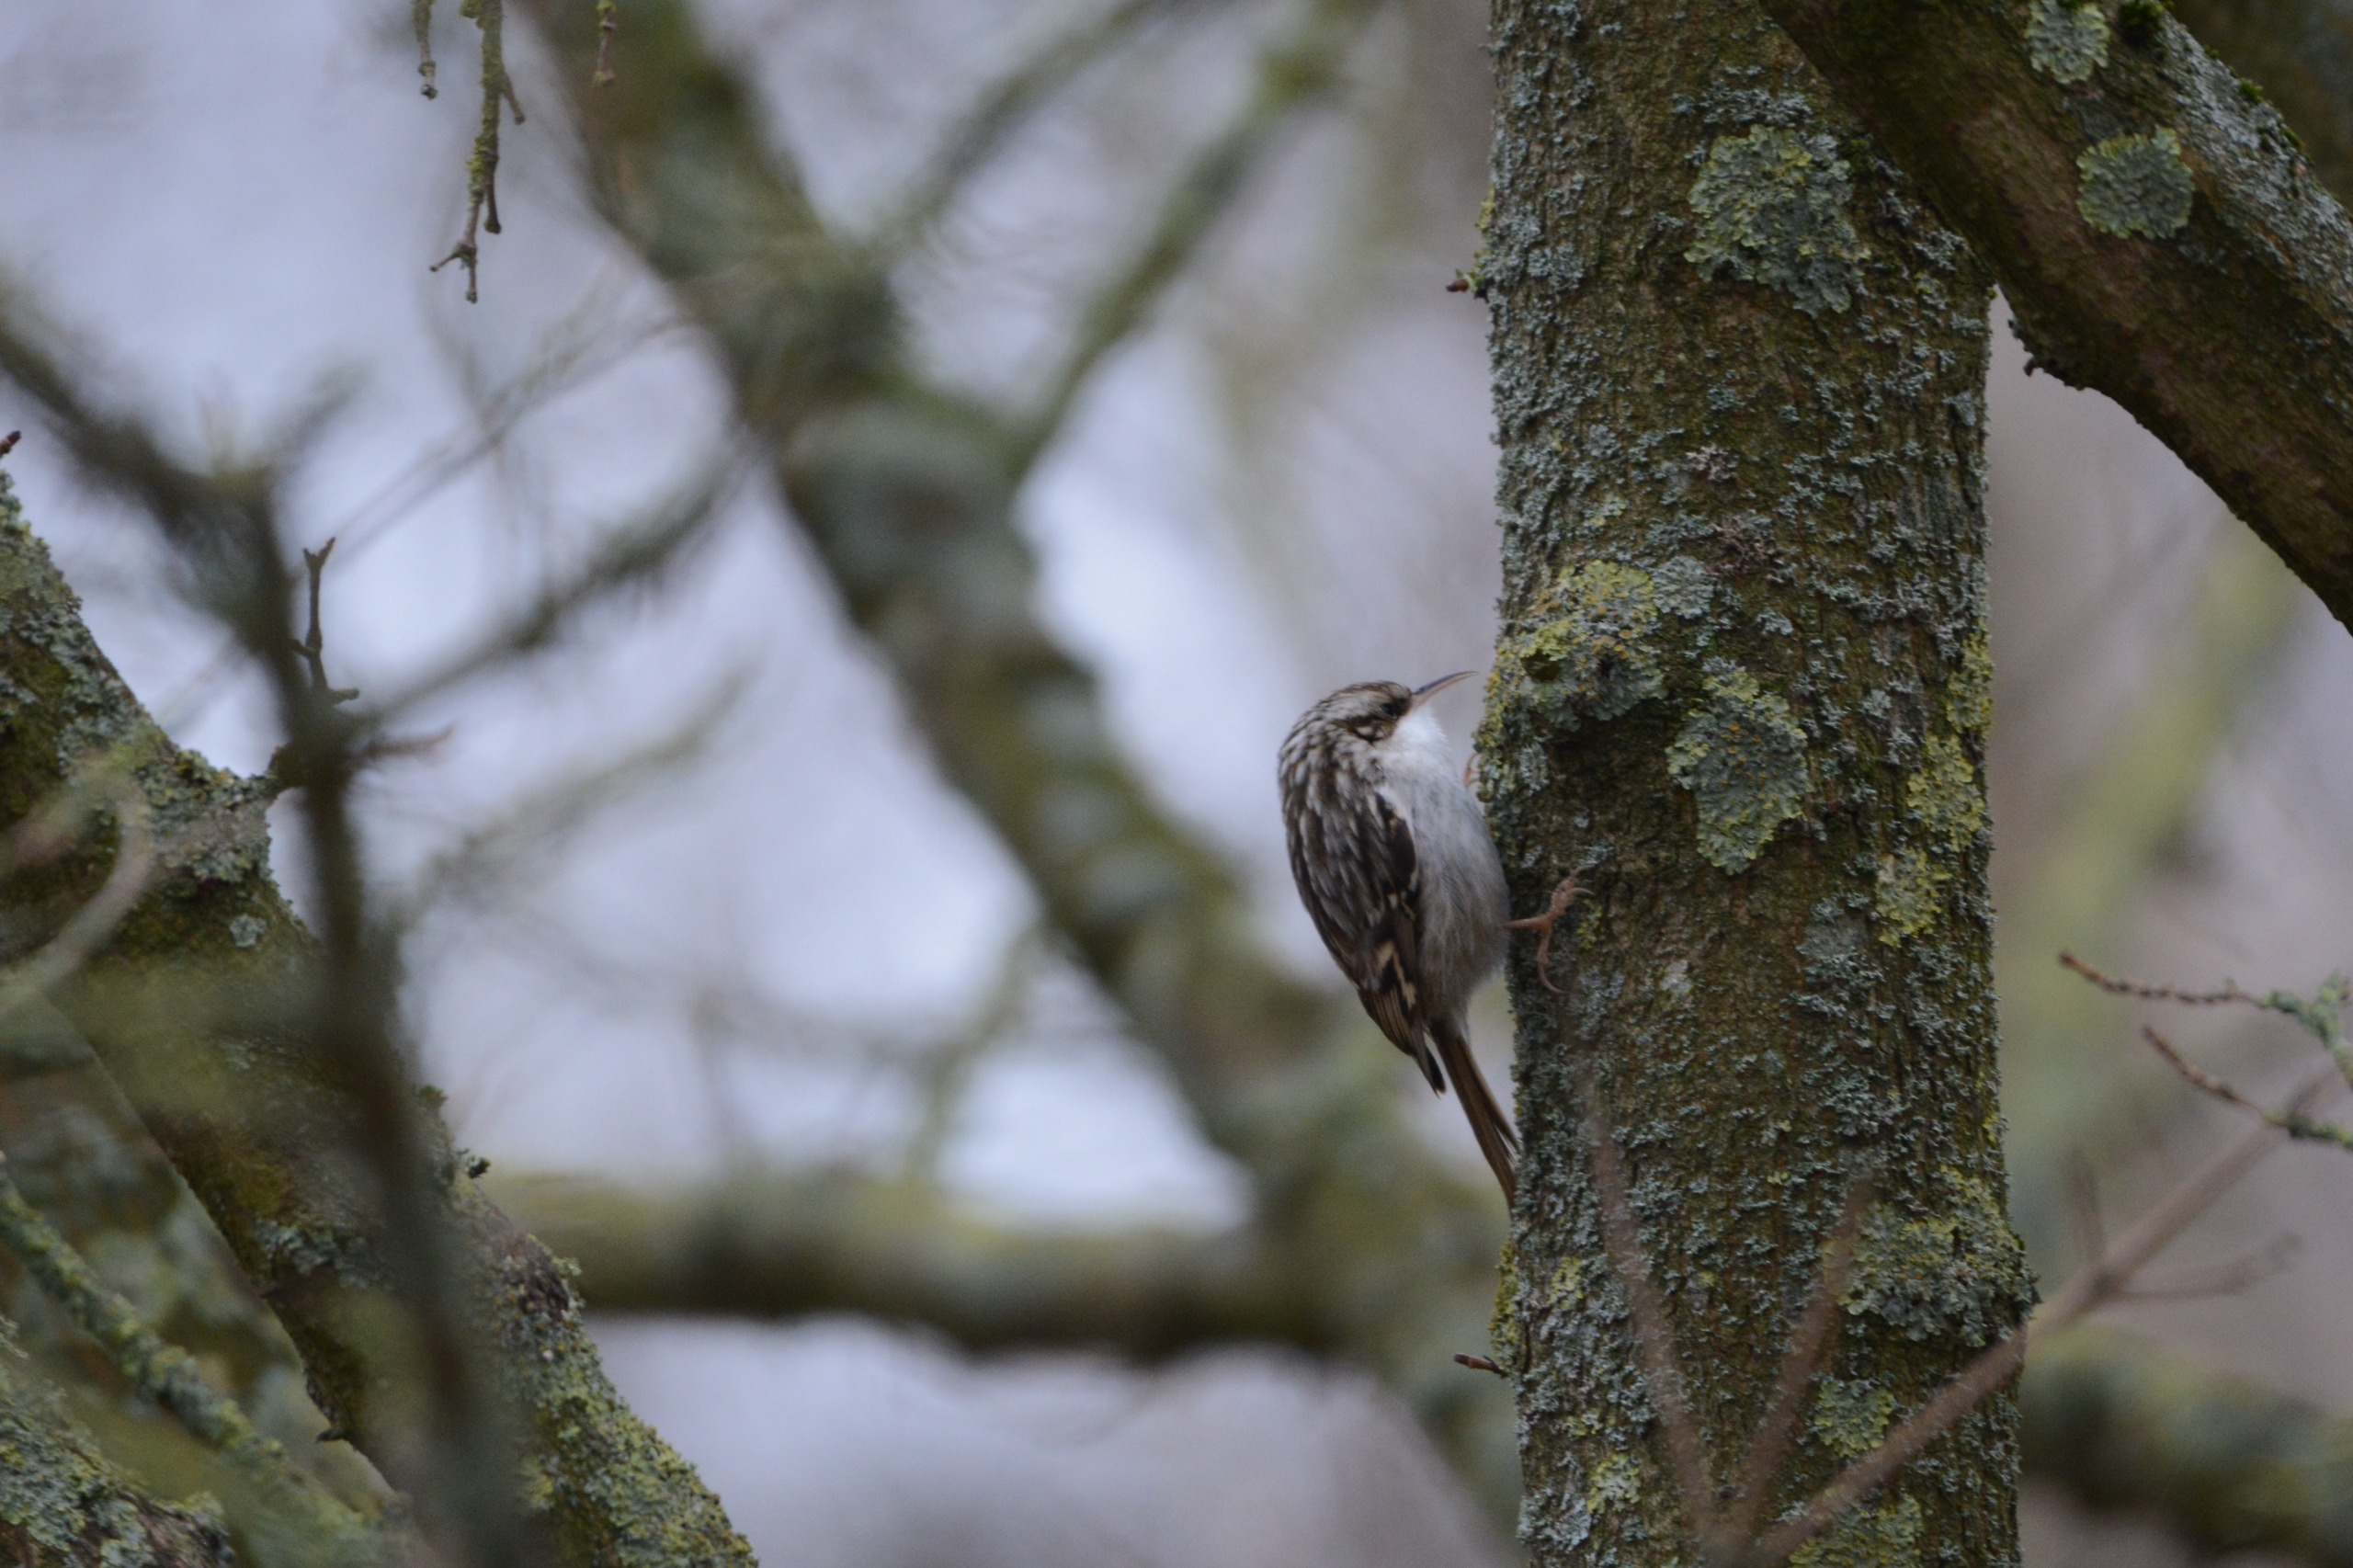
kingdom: Animalia
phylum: Chordata
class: Aves
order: Passeriformes
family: Certhiidae
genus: Certhia
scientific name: Certhia brachydactyla
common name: Korttået træløber
